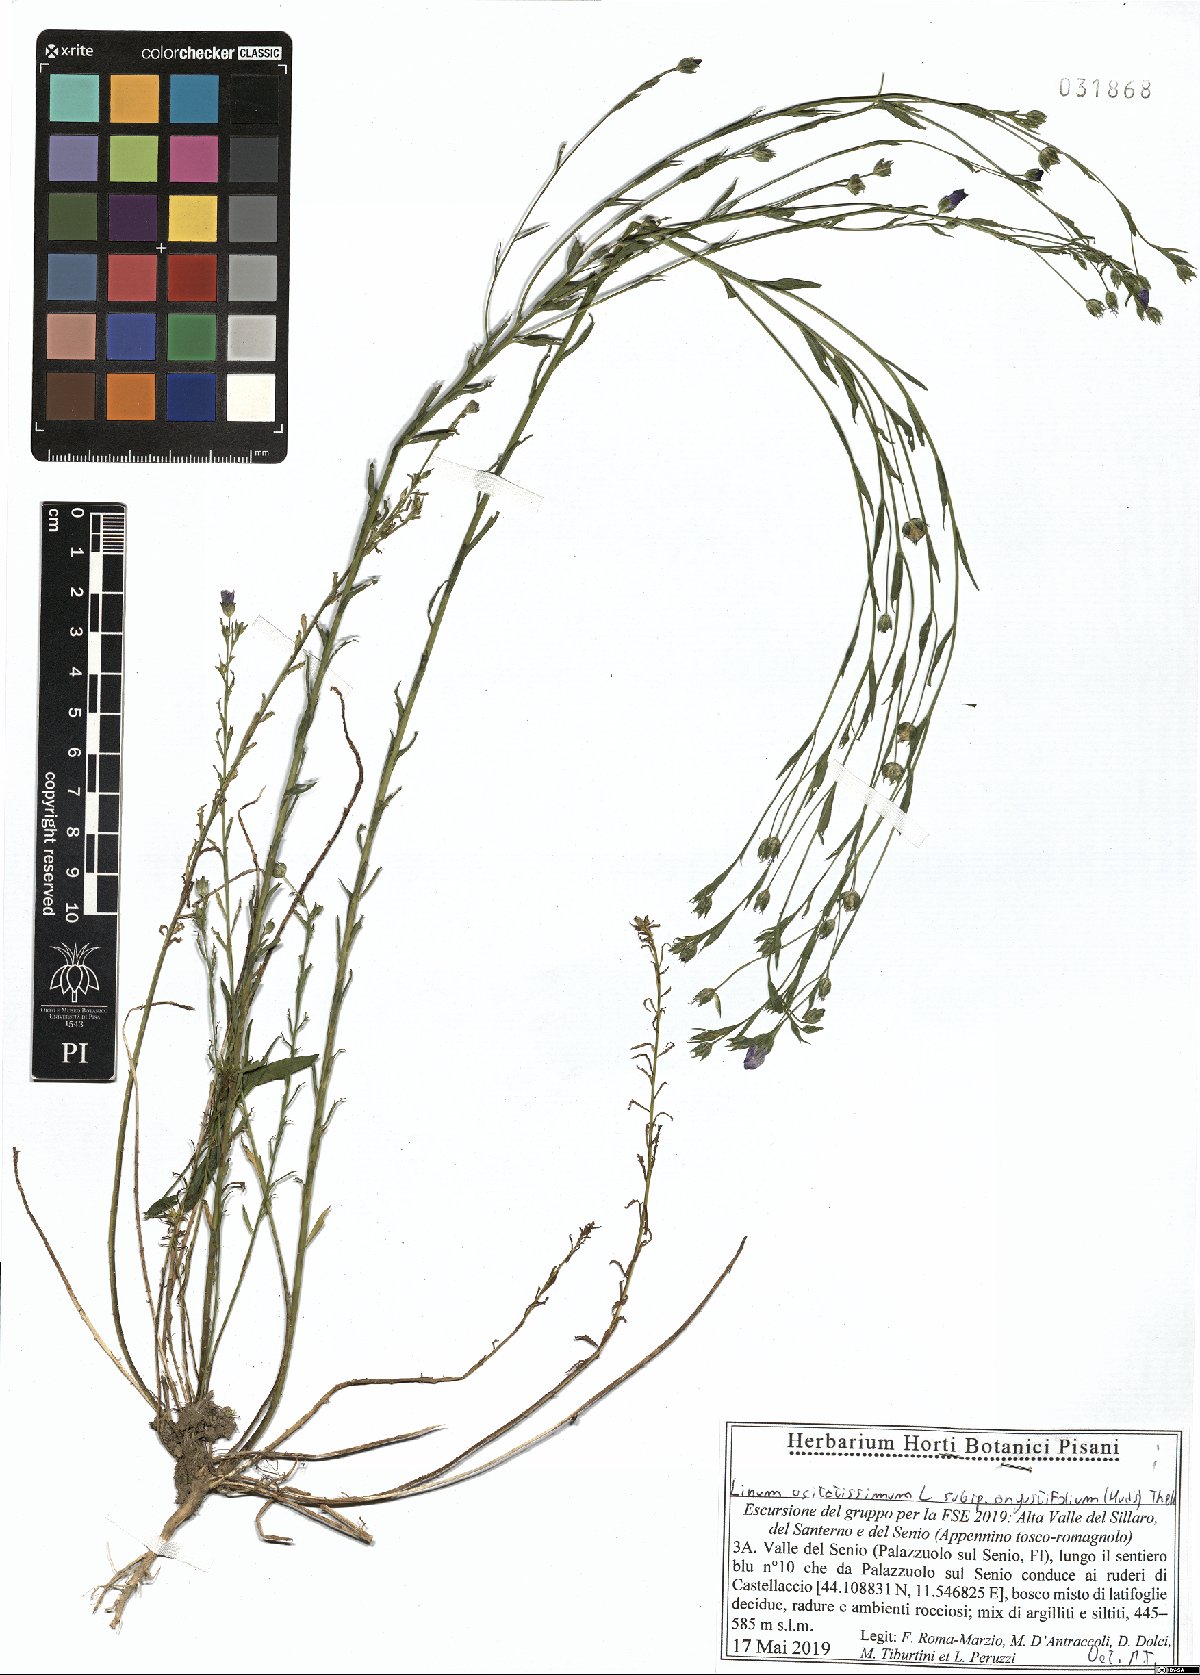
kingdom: Plantae
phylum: Tracheophyta
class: Magnoliopsida
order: Malpighiales
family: Linaceae
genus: Linum
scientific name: Linum bienne
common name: Pale flax
